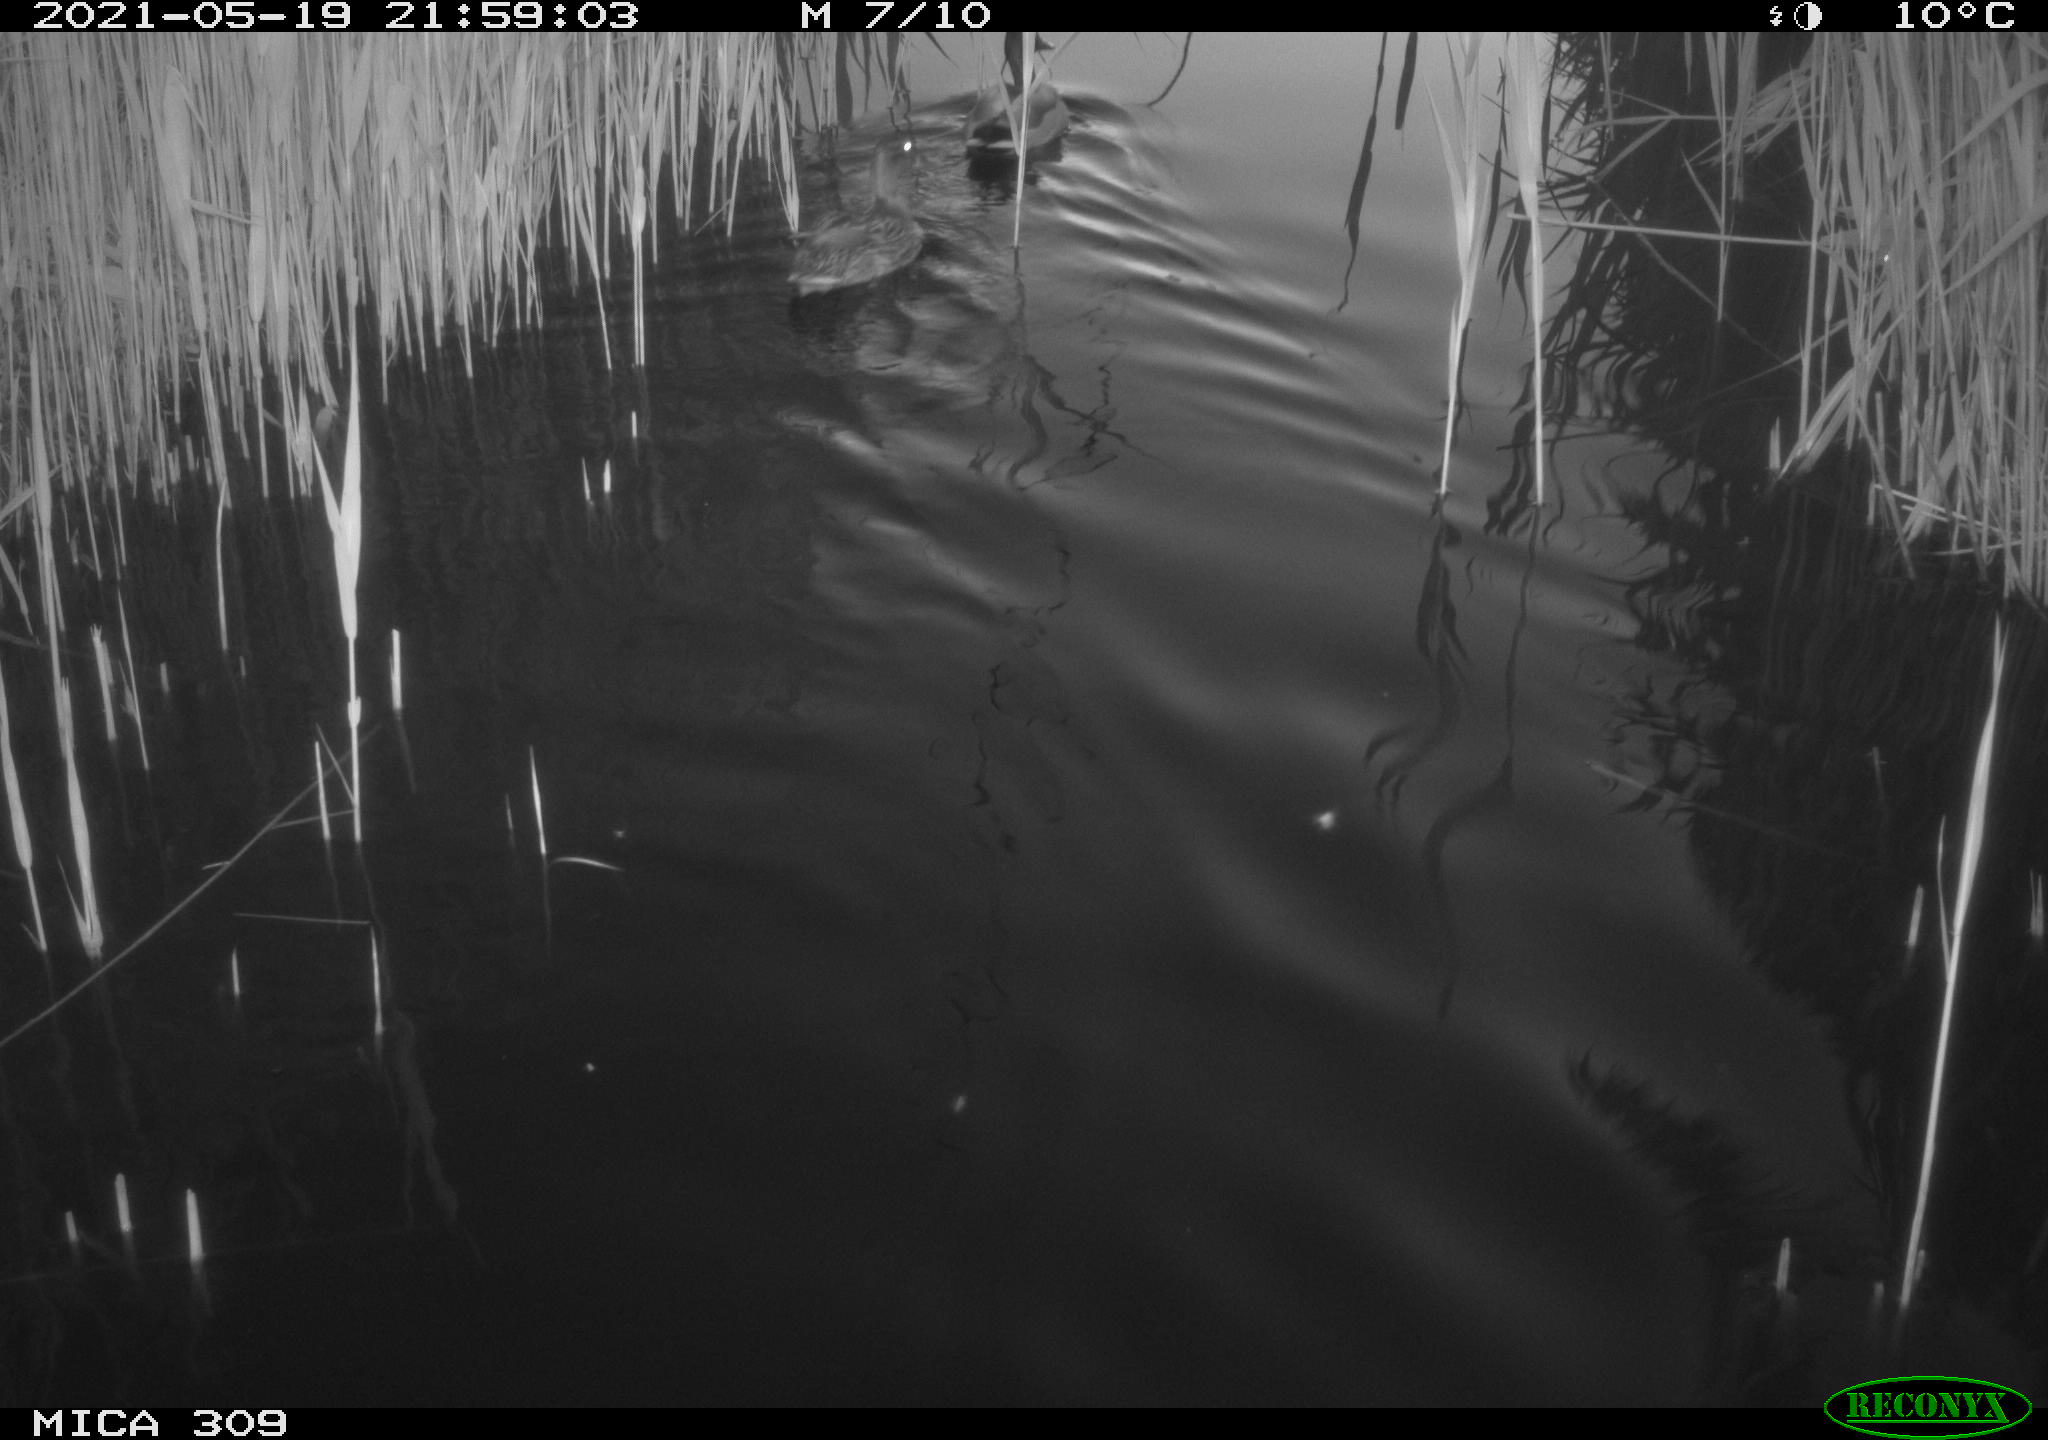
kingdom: Animalia
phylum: Chordata
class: Aves
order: Anseriformes
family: Anatidae
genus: Mareca
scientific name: Mareca strepera
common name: Gadwall
